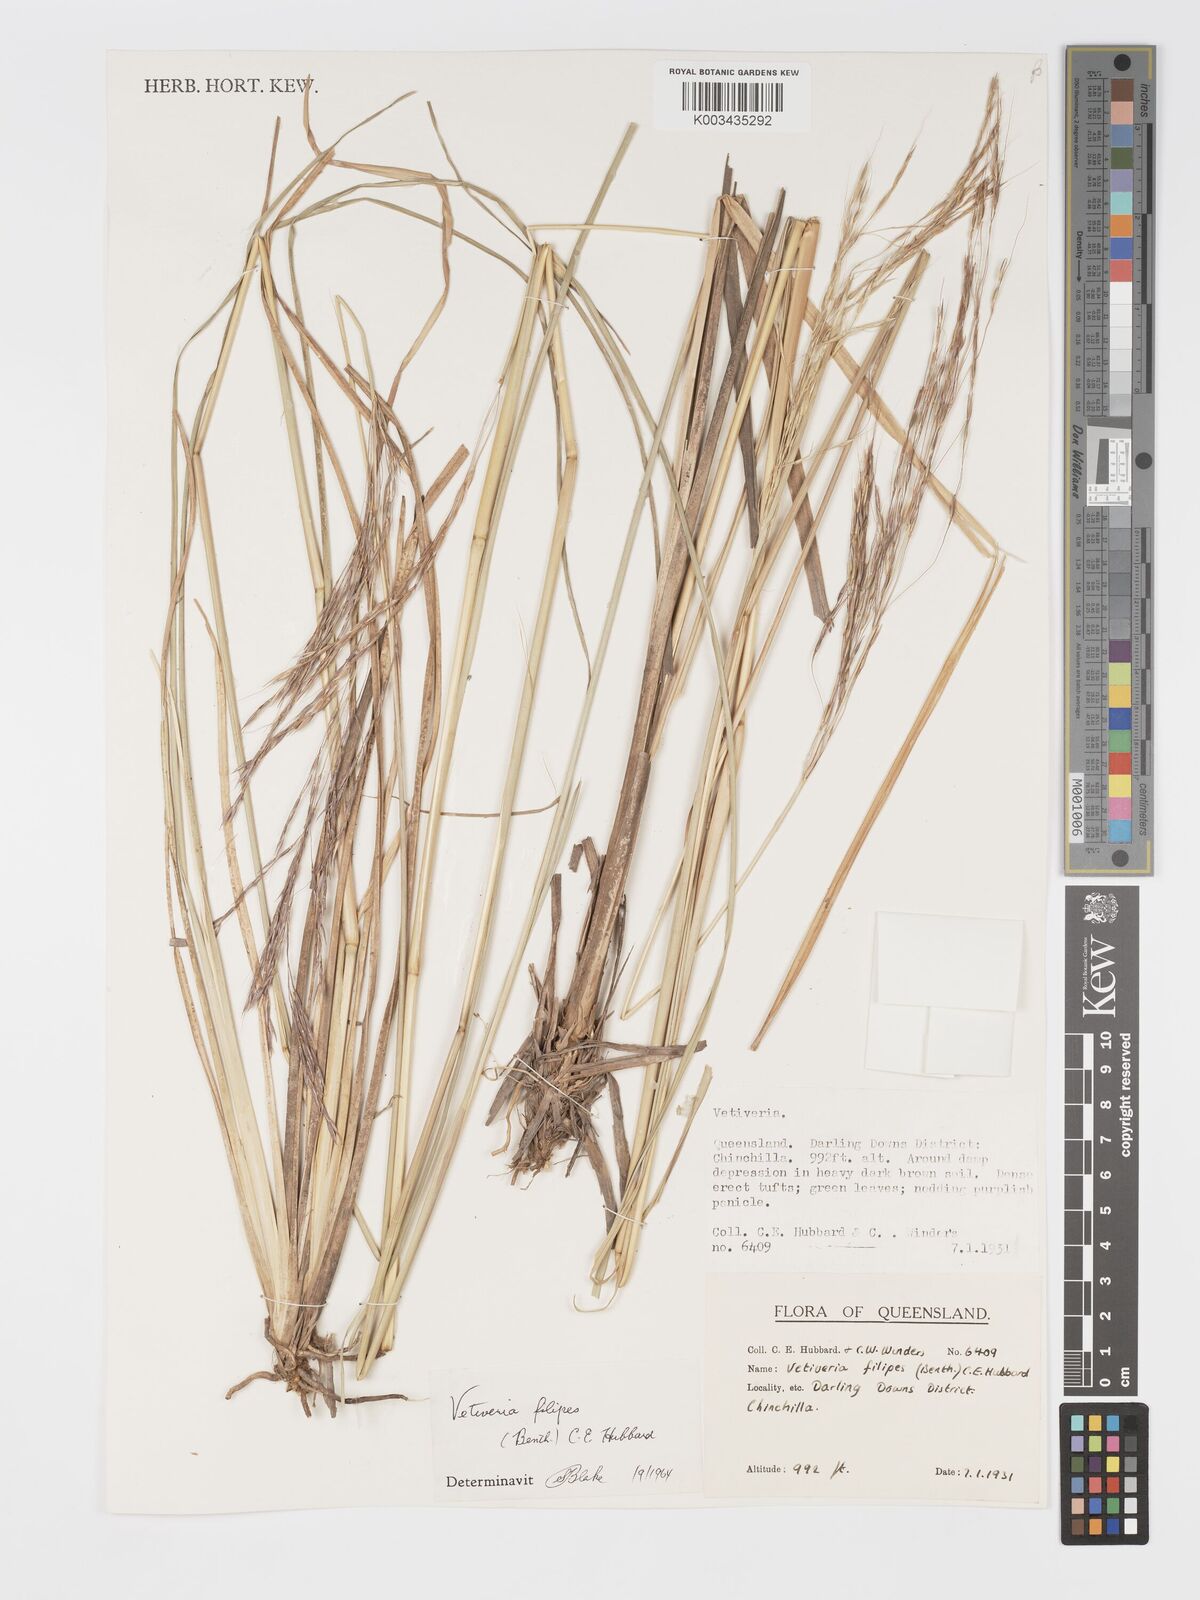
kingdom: Plantae
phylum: Tracheophyta
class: Liliopsida
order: Poales
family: Poaceae
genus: Chrysopogon
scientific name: Chrysopogon filipes
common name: Australian vetiver
